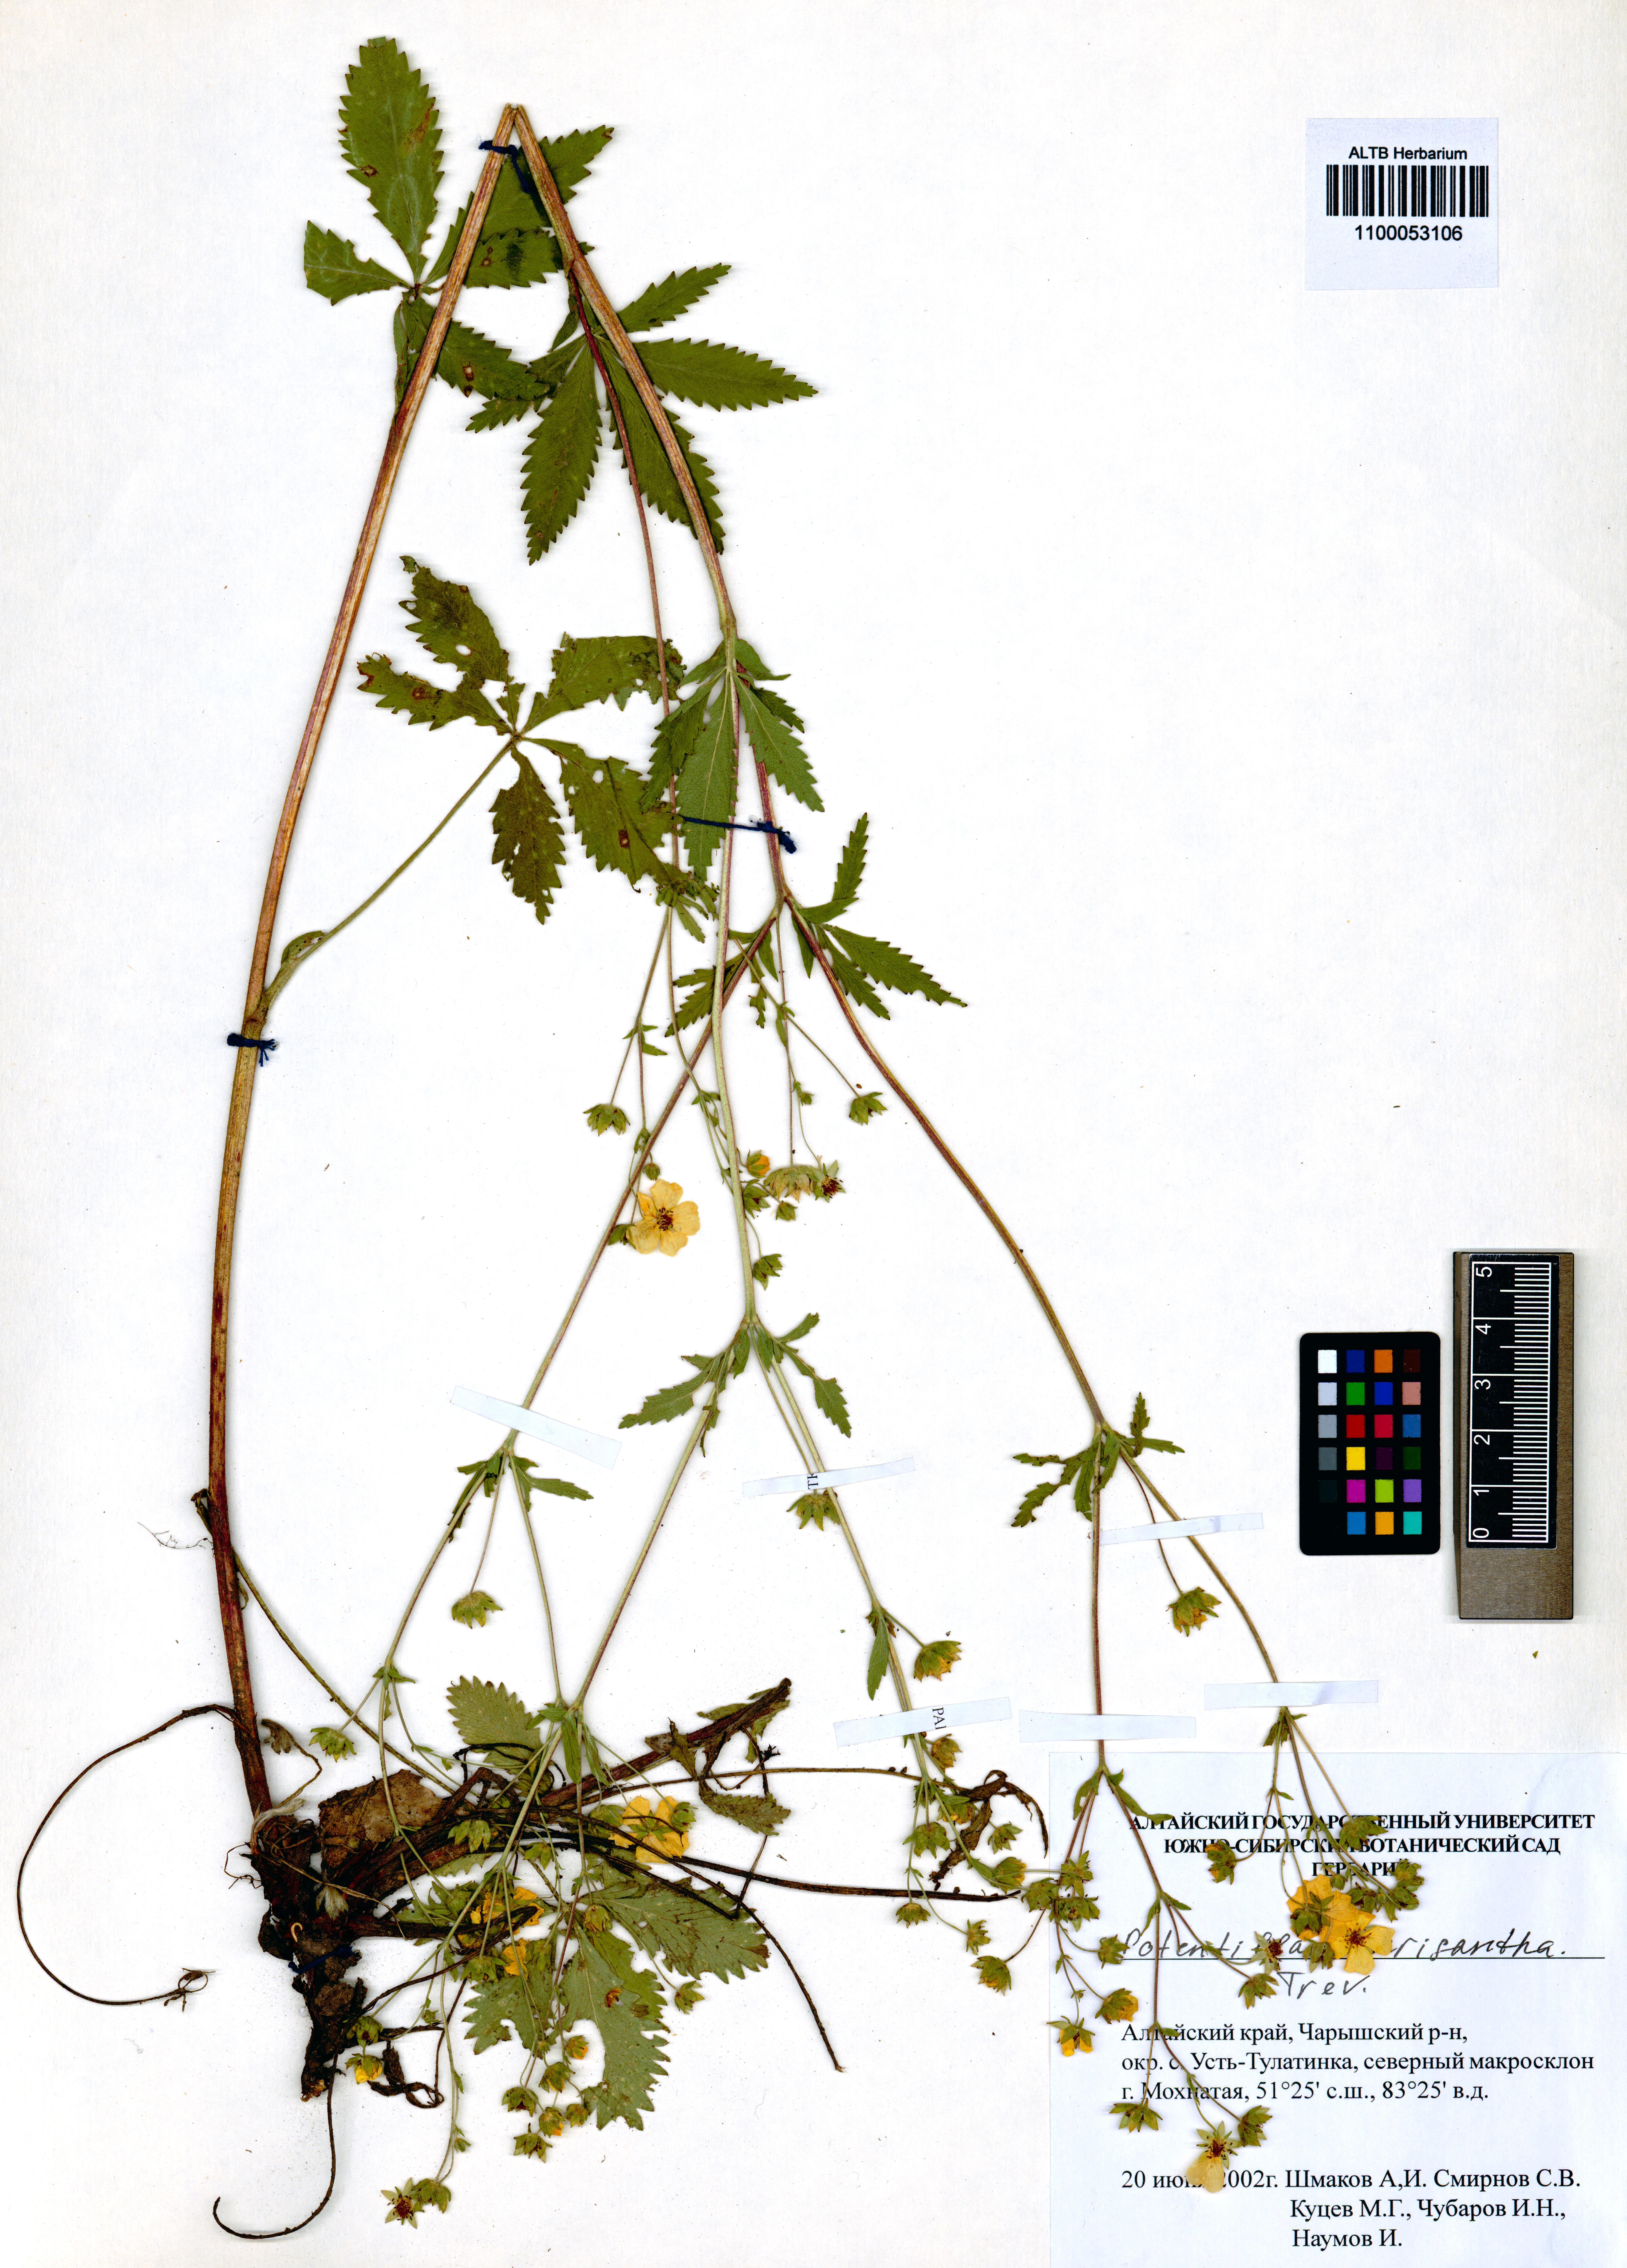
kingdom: Plantae
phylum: Tracheophyta
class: Magnoliopsida
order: Rosales
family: Rosaceae
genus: Potentilla
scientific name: Potentilla chrysantha
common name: Thuringian cinquefoil
